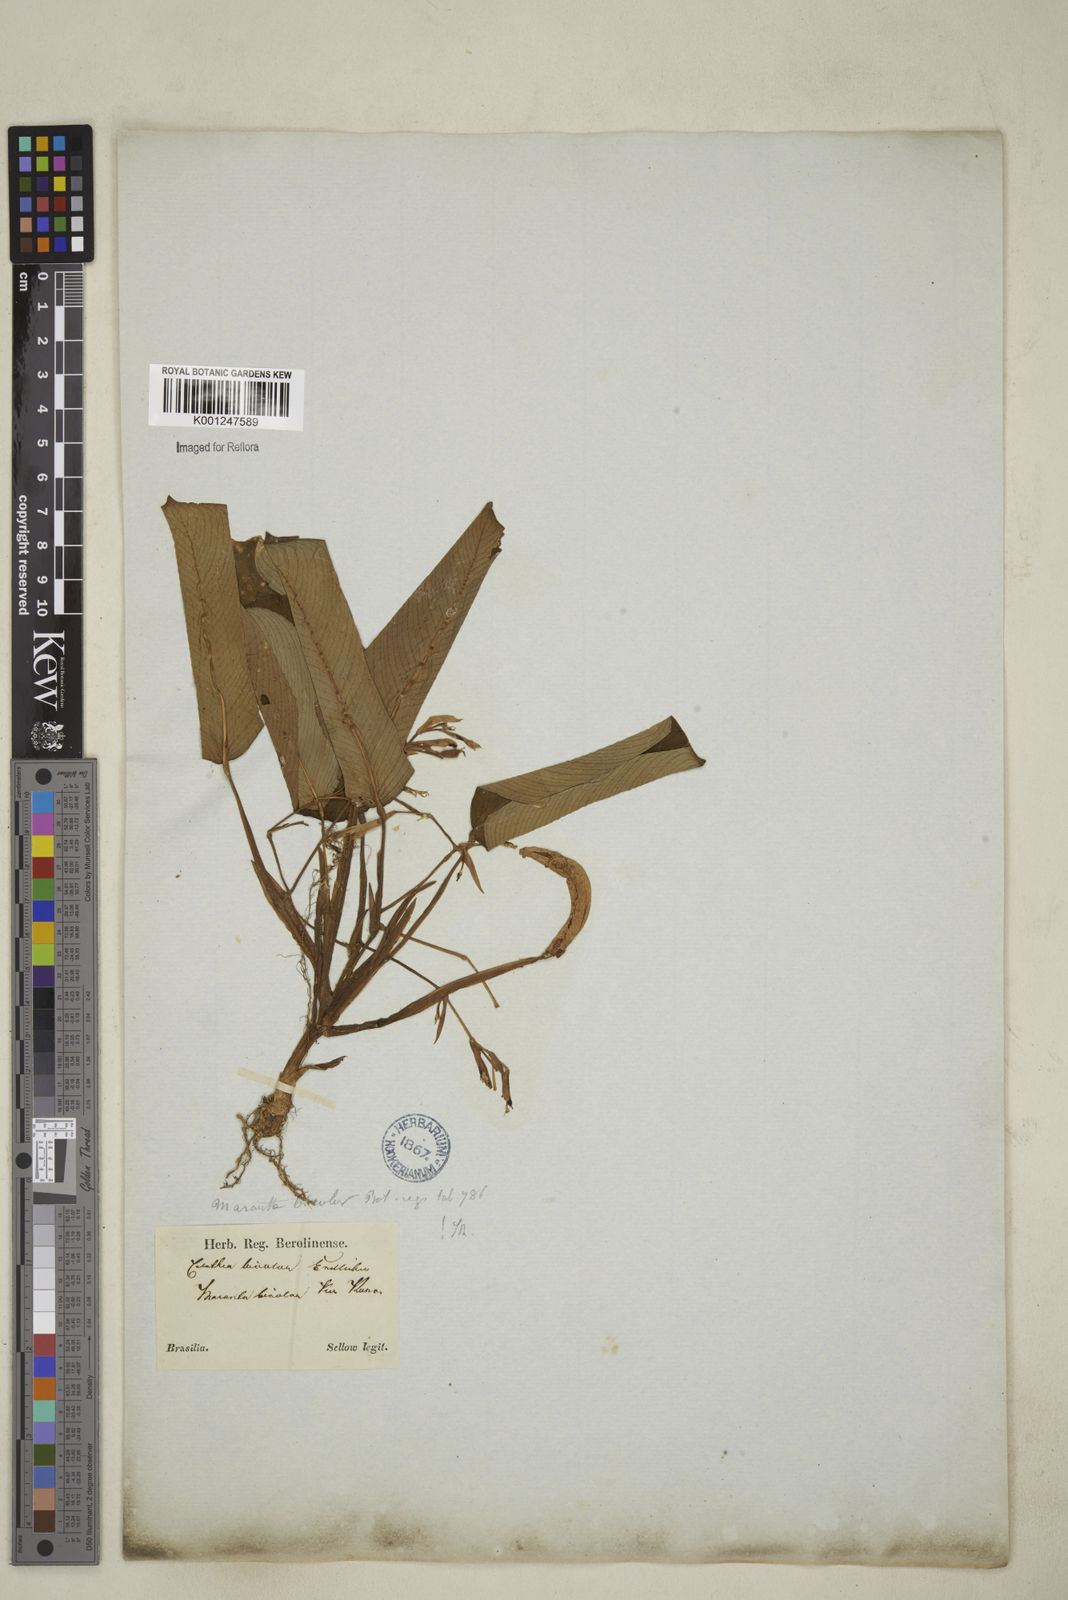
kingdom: Plantae
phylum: Tracheophyta
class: Liliopsida
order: Zingiberales
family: Marantaceae
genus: Maranta
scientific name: Maranta cristata
